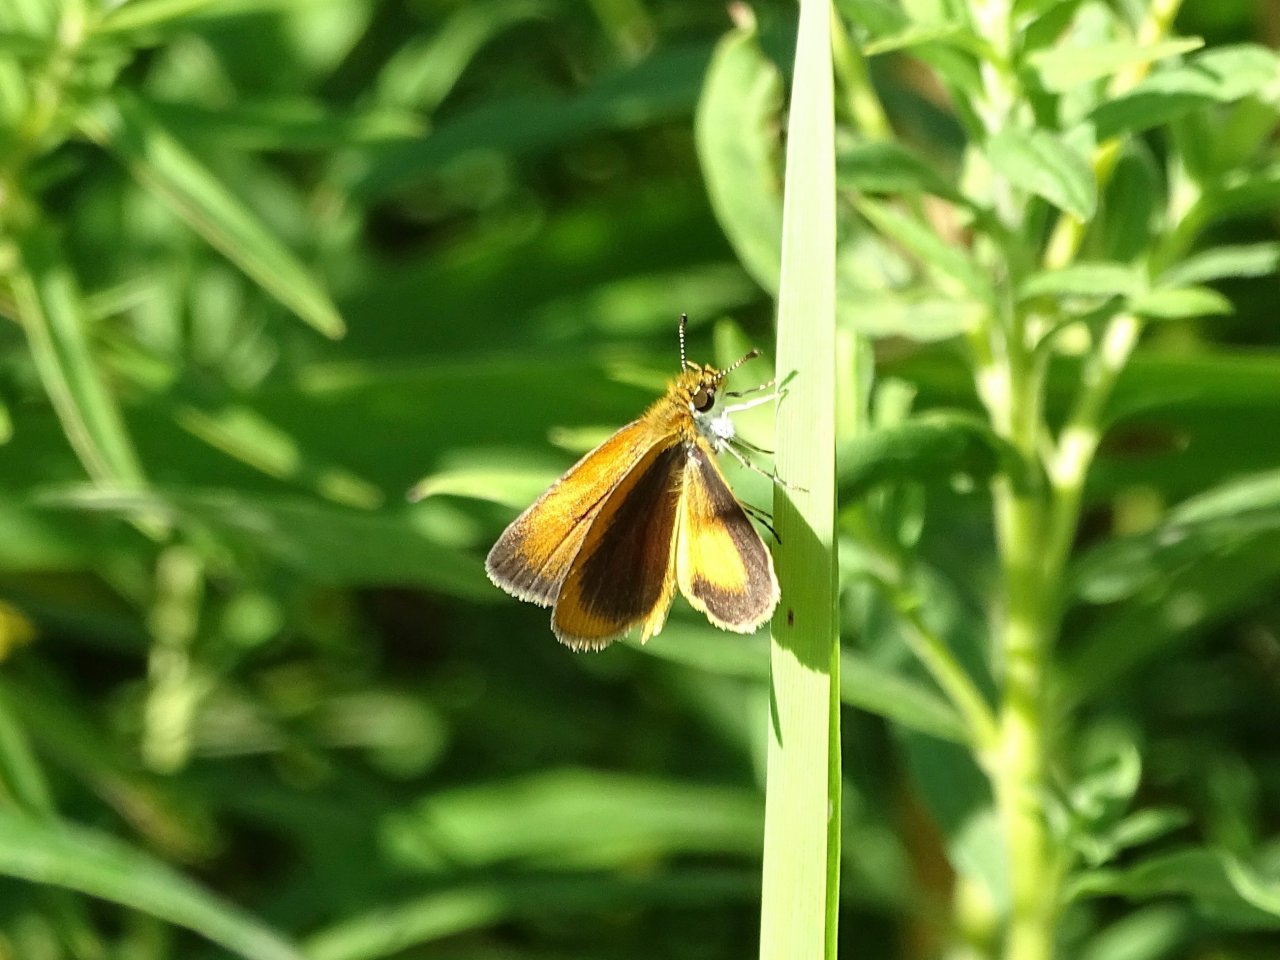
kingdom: Animalia
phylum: Arthropoda
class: Insecta
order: Lepidoptera
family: Hesperiidae
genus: Ancyloxypha
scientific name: Ancyloxypha numitor
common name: Least Skipper
